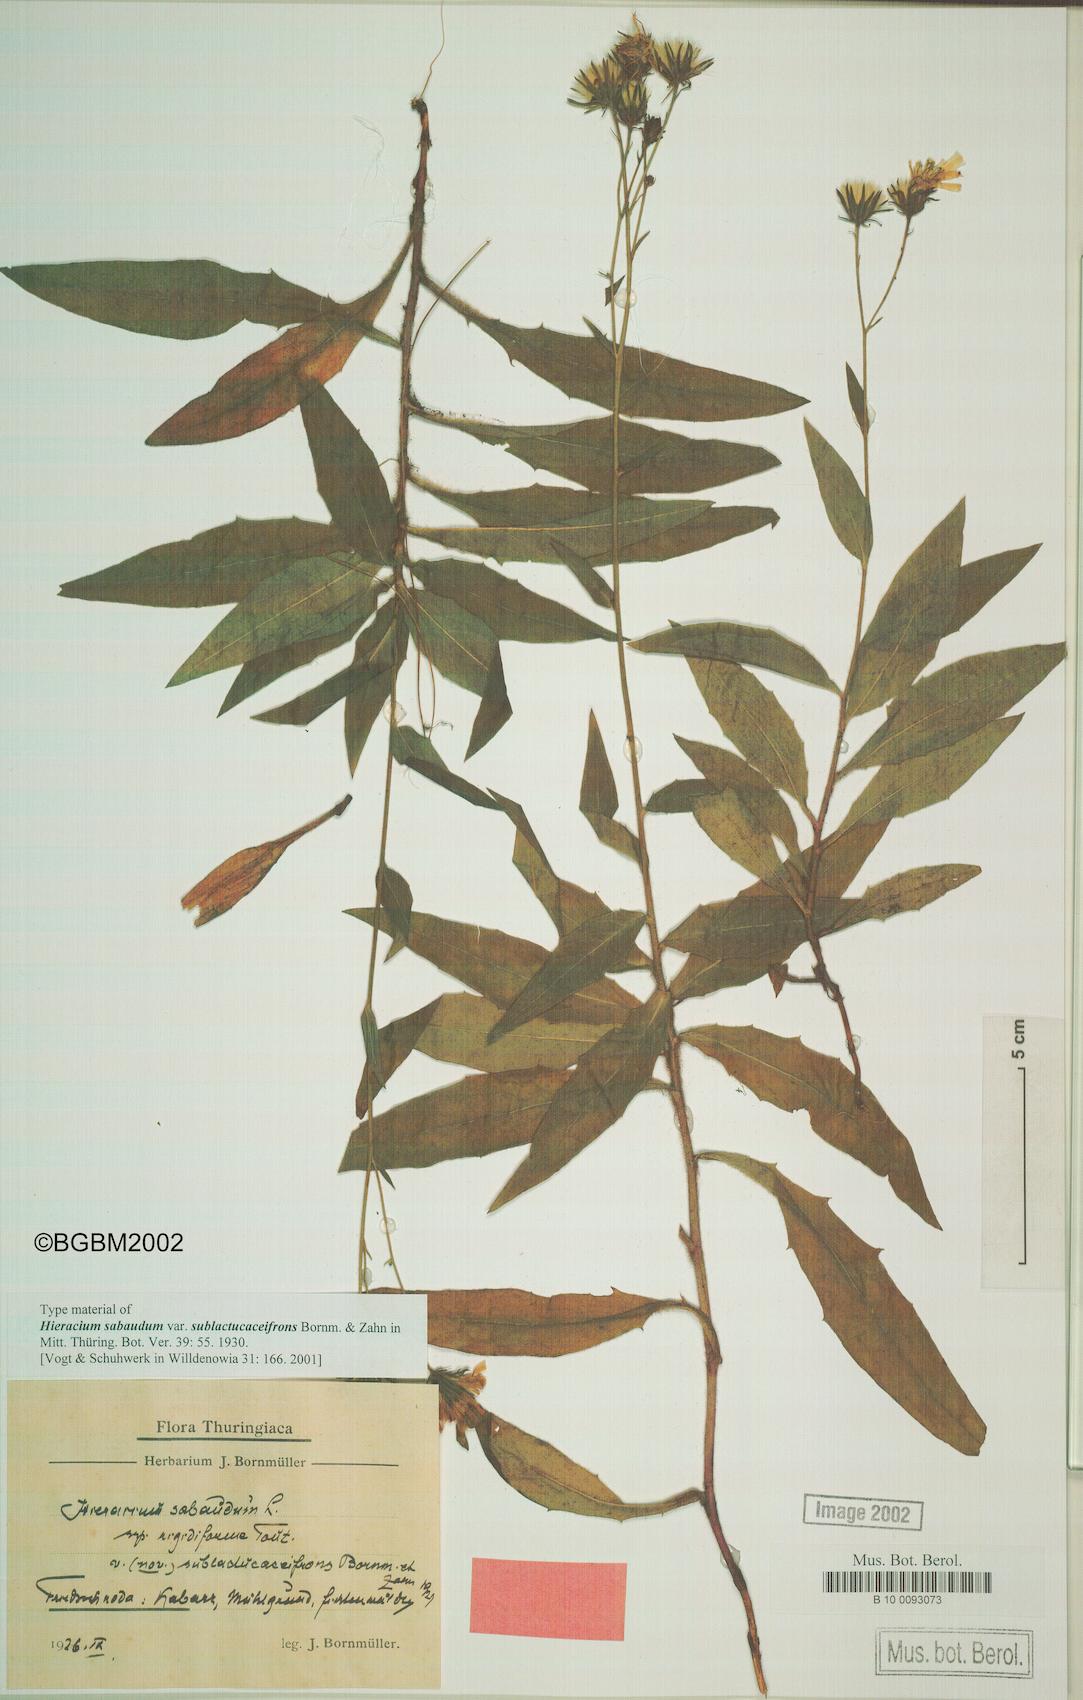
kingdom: Plantae
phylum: Tracheophyta
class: Magnoliopsida
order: Asterales
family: Asteraceae
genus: Hieracium
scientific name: Hieracium sabaudum
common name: New england hawkweed
